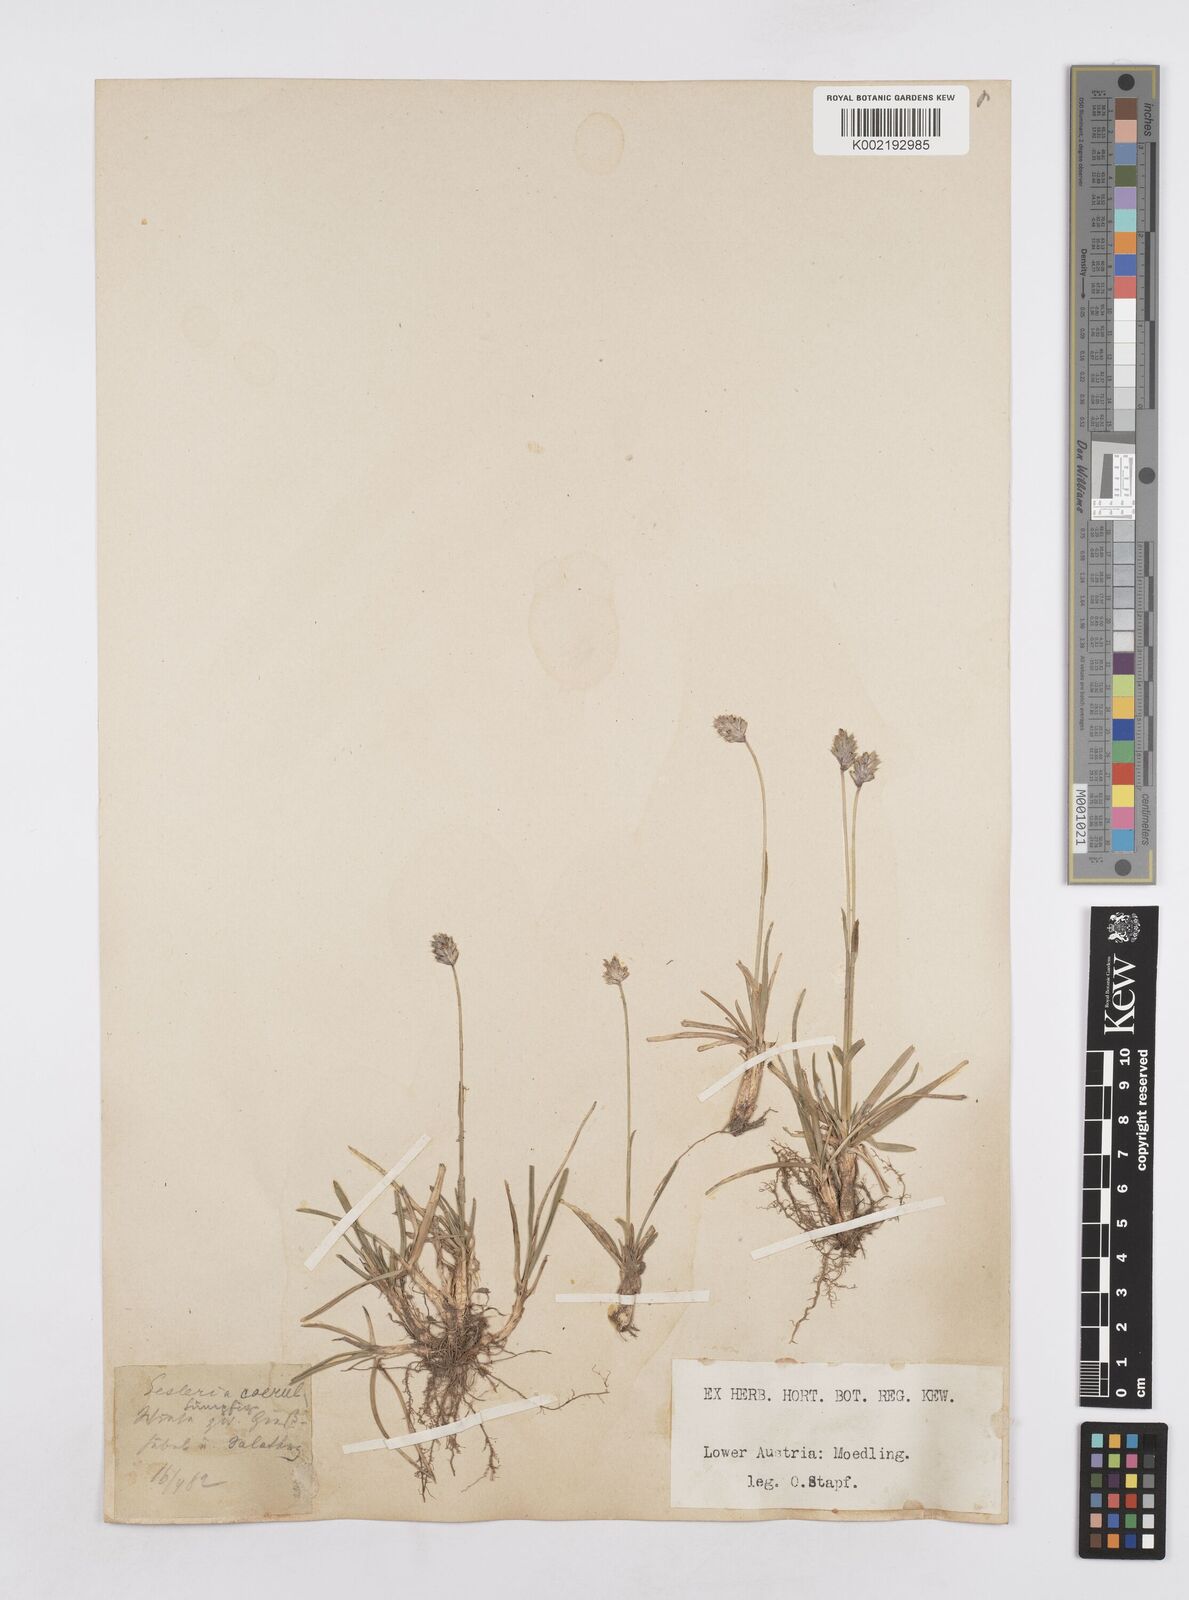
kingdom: Plantae
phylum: Tracheophyta
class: Liliopsida
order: Poales
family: Poaceae
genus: Sesleria
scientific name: Sesleria caerulea
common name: Blue moor-grass
